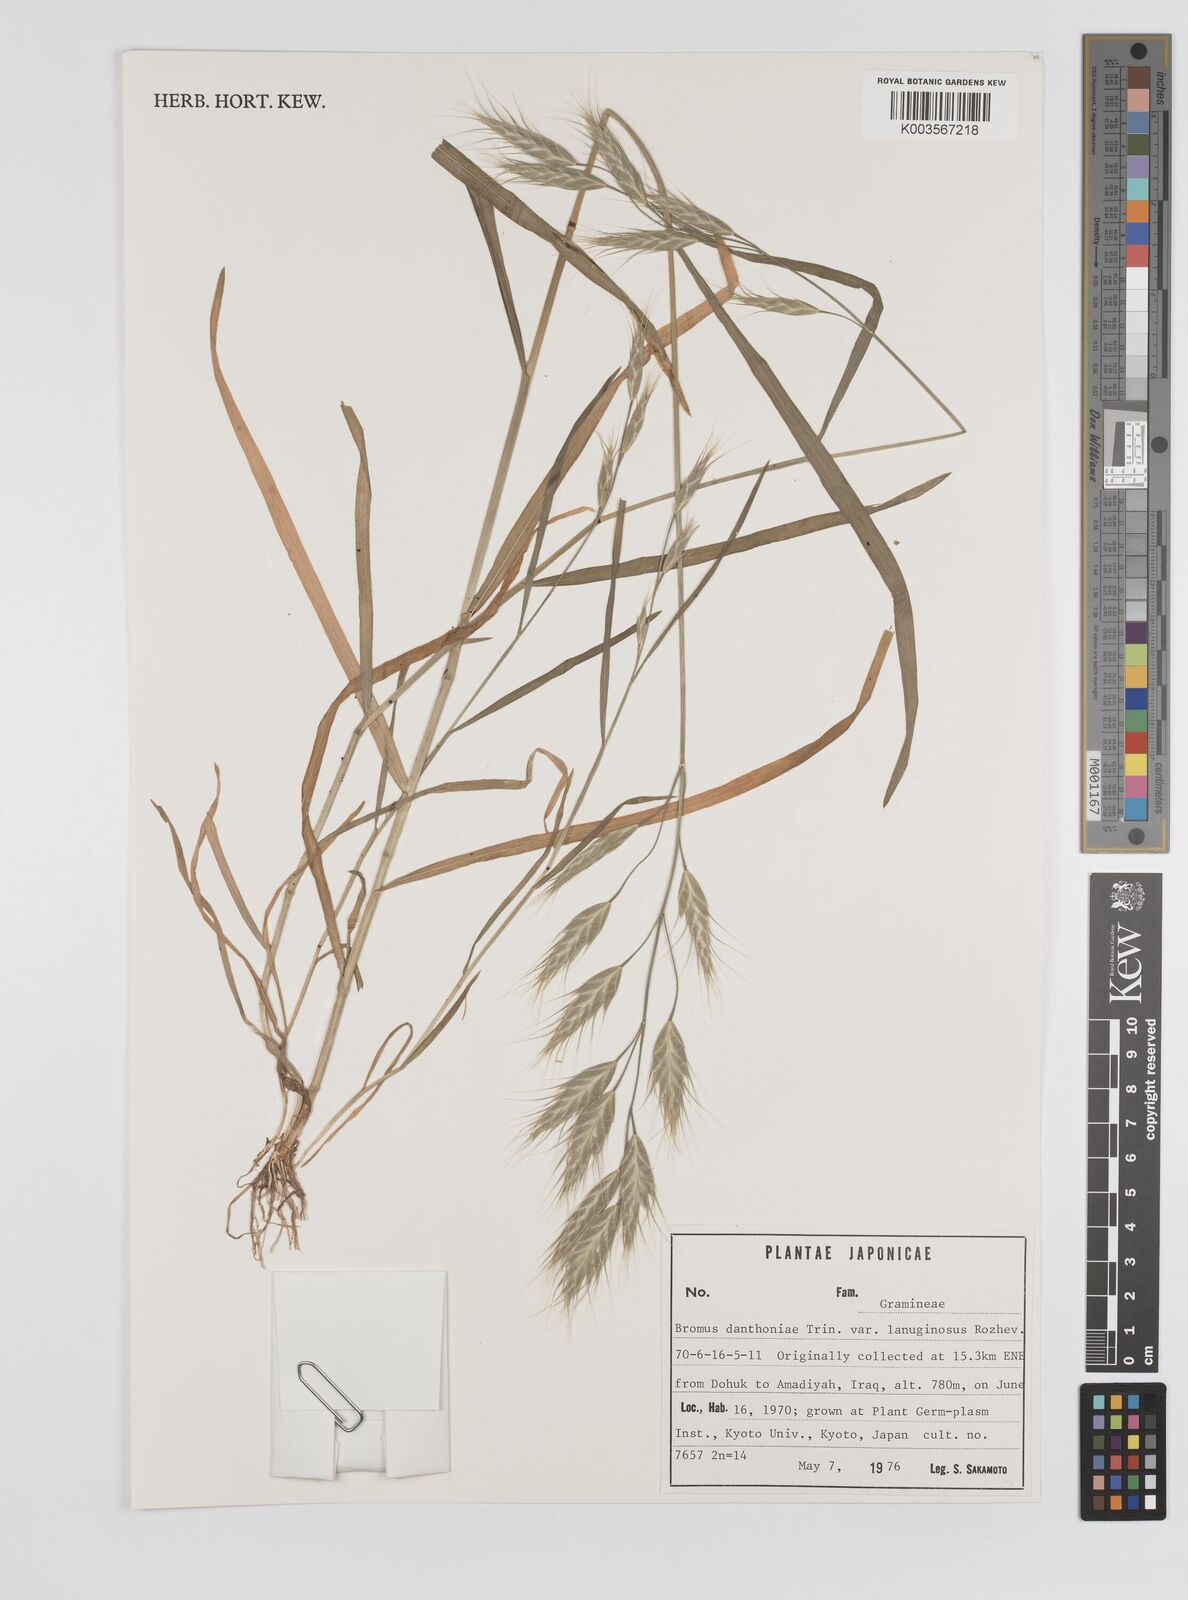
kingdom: Plantae
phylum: Tracheophyta
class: Liliopsida
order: Poales
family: Poaceae
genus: Bromus
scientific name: Bromus danthoniae
